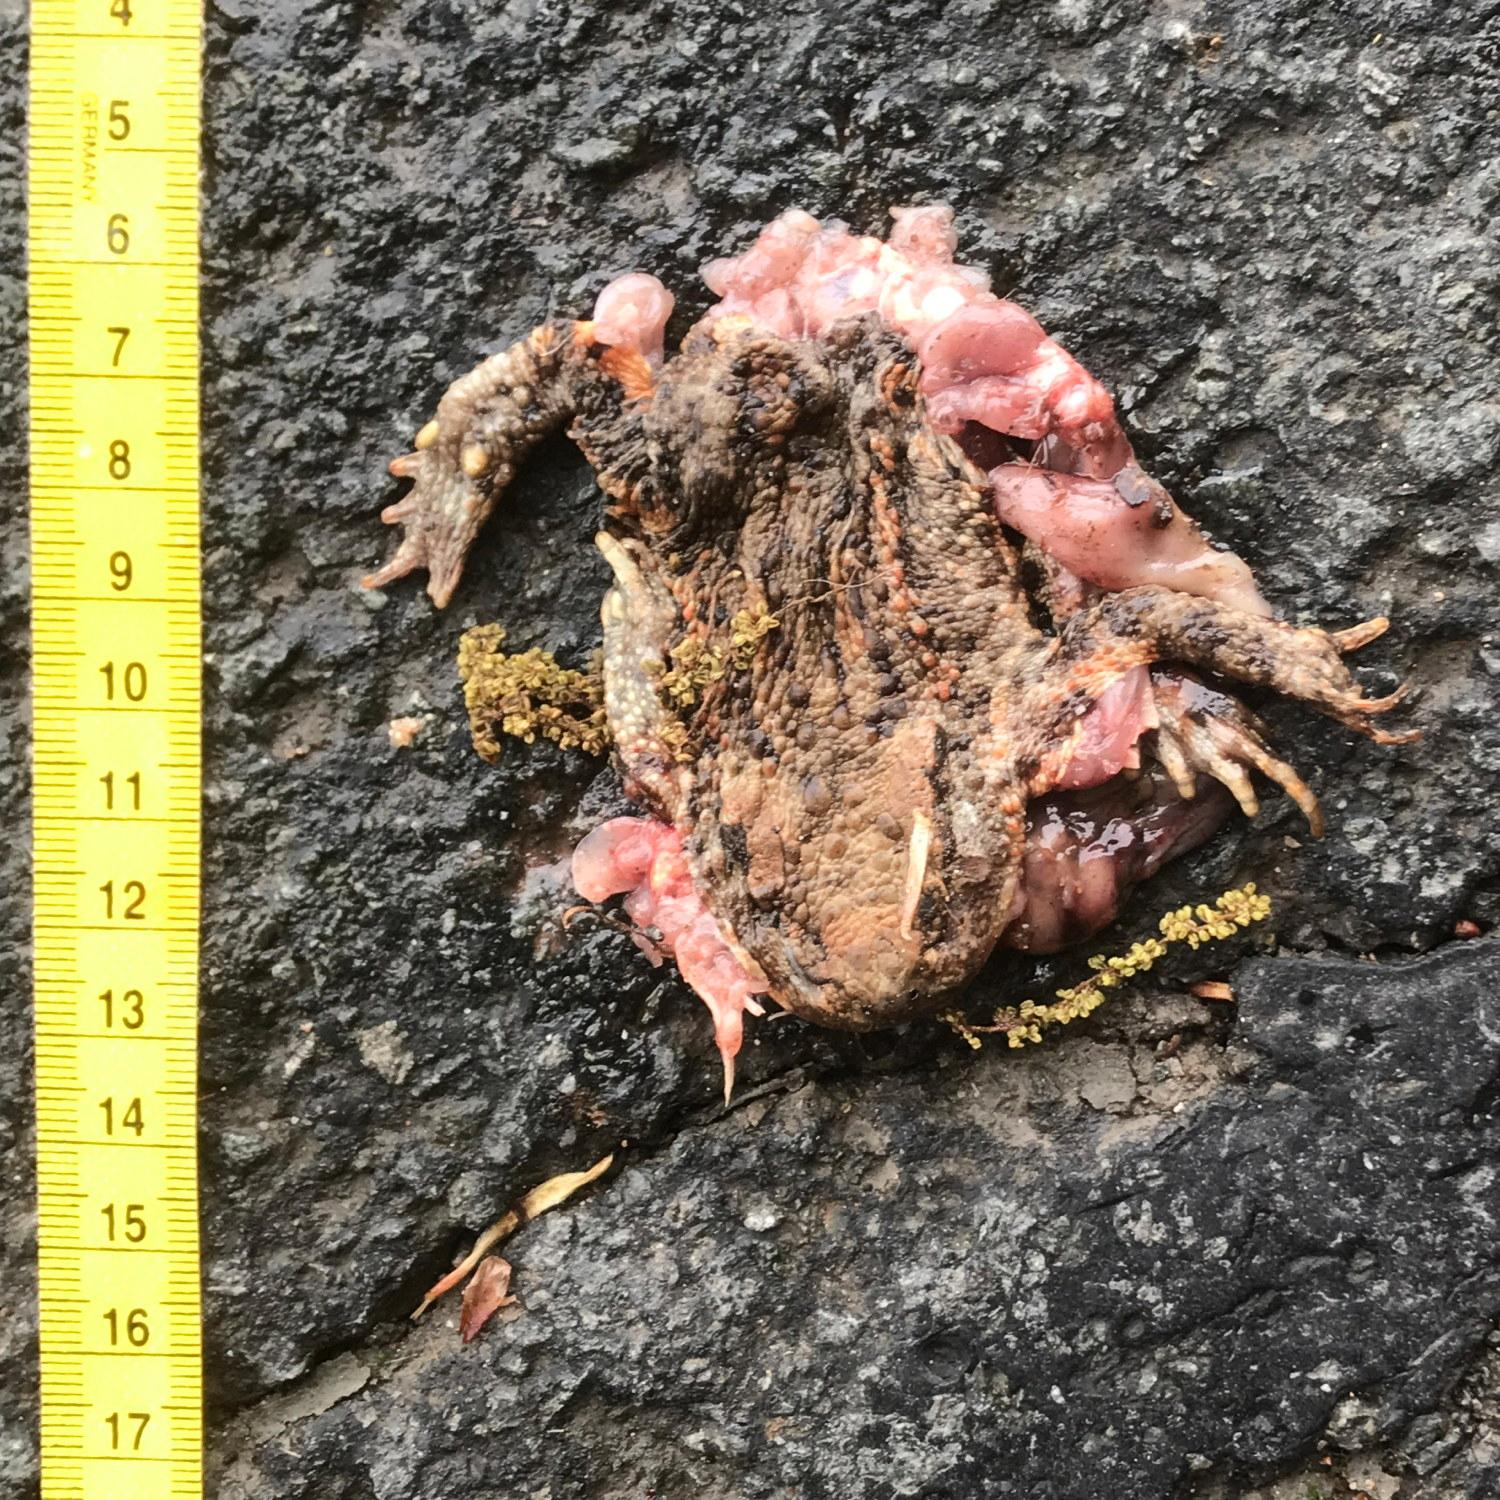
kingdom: Animalia
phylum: Chordata
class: Amphibia
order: Anura
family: Bufonidae
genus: Bufo
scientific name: Bufo bufo
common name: Common toad
